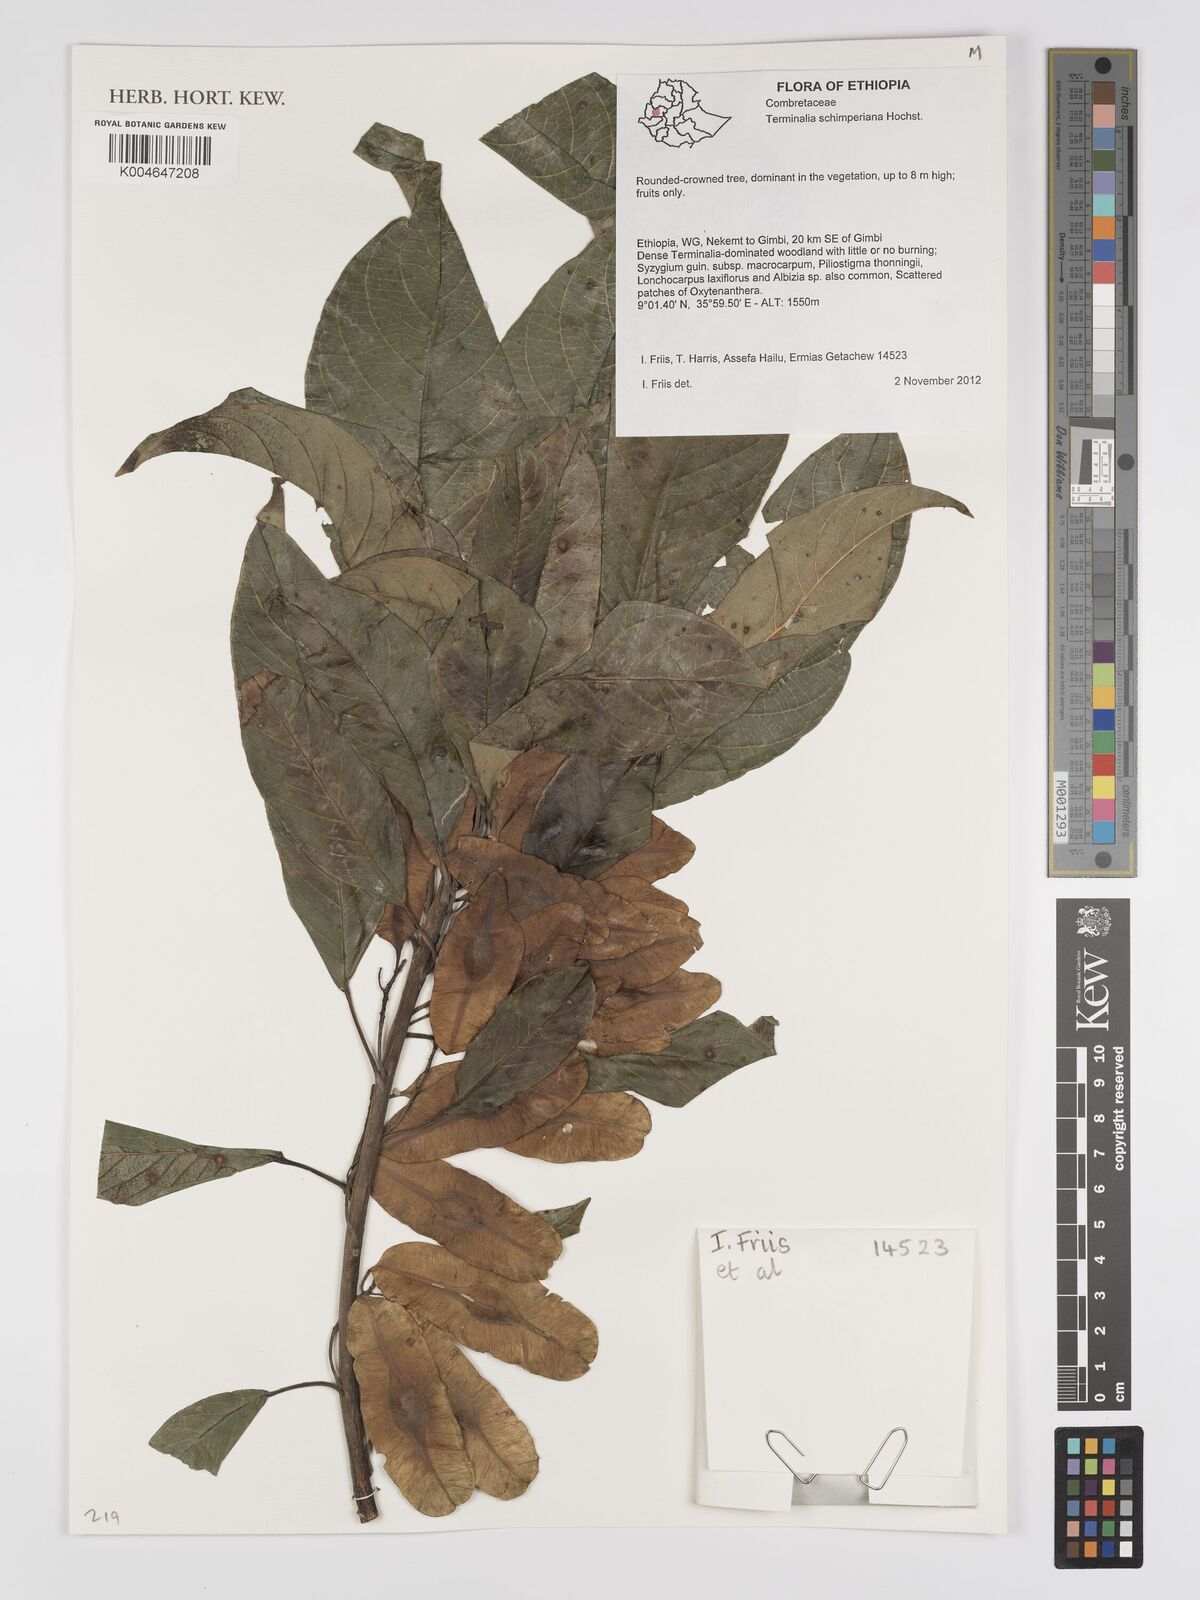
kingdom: Plantae
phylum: Tracheophyta
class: Magnoliopsida
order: Myrtales
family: Combretaceae
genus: Terminalia
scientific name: Terminalia schimperiana
